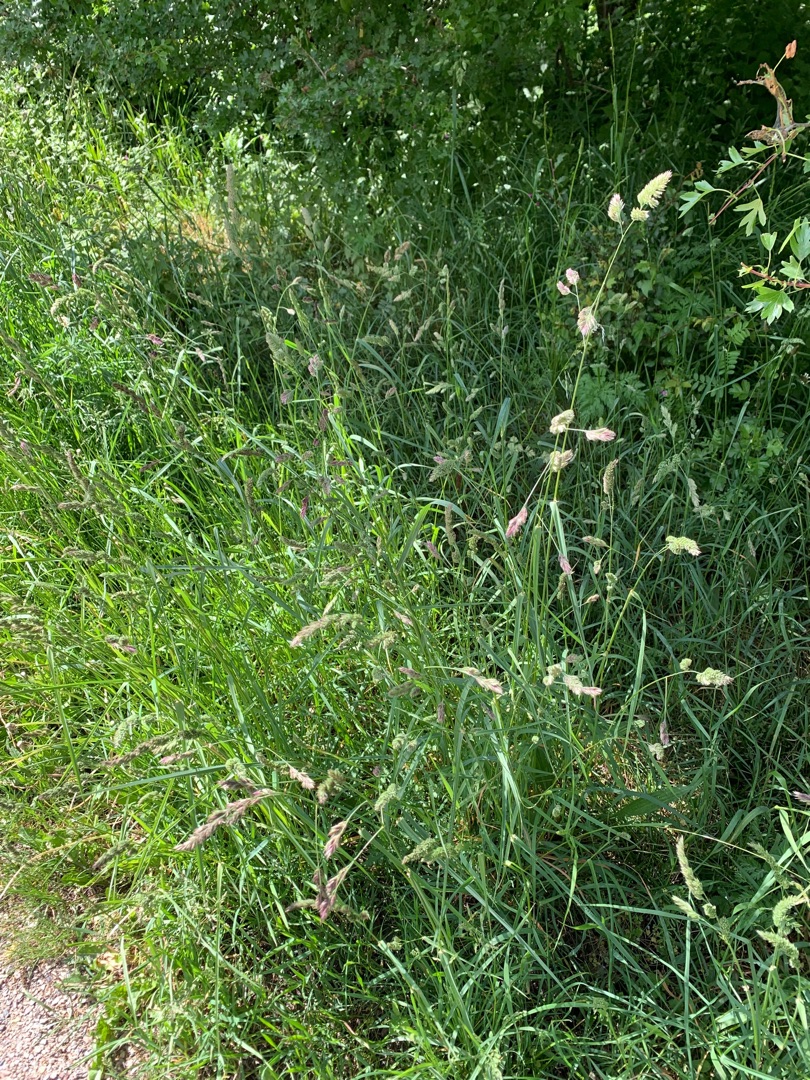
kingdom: Plantae
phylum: Tracheophyta
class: Liliopsida
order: Poales
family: Poaceae
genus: Dactylis
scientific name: Dactylis glomerata
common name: Almindelig hundegræs
